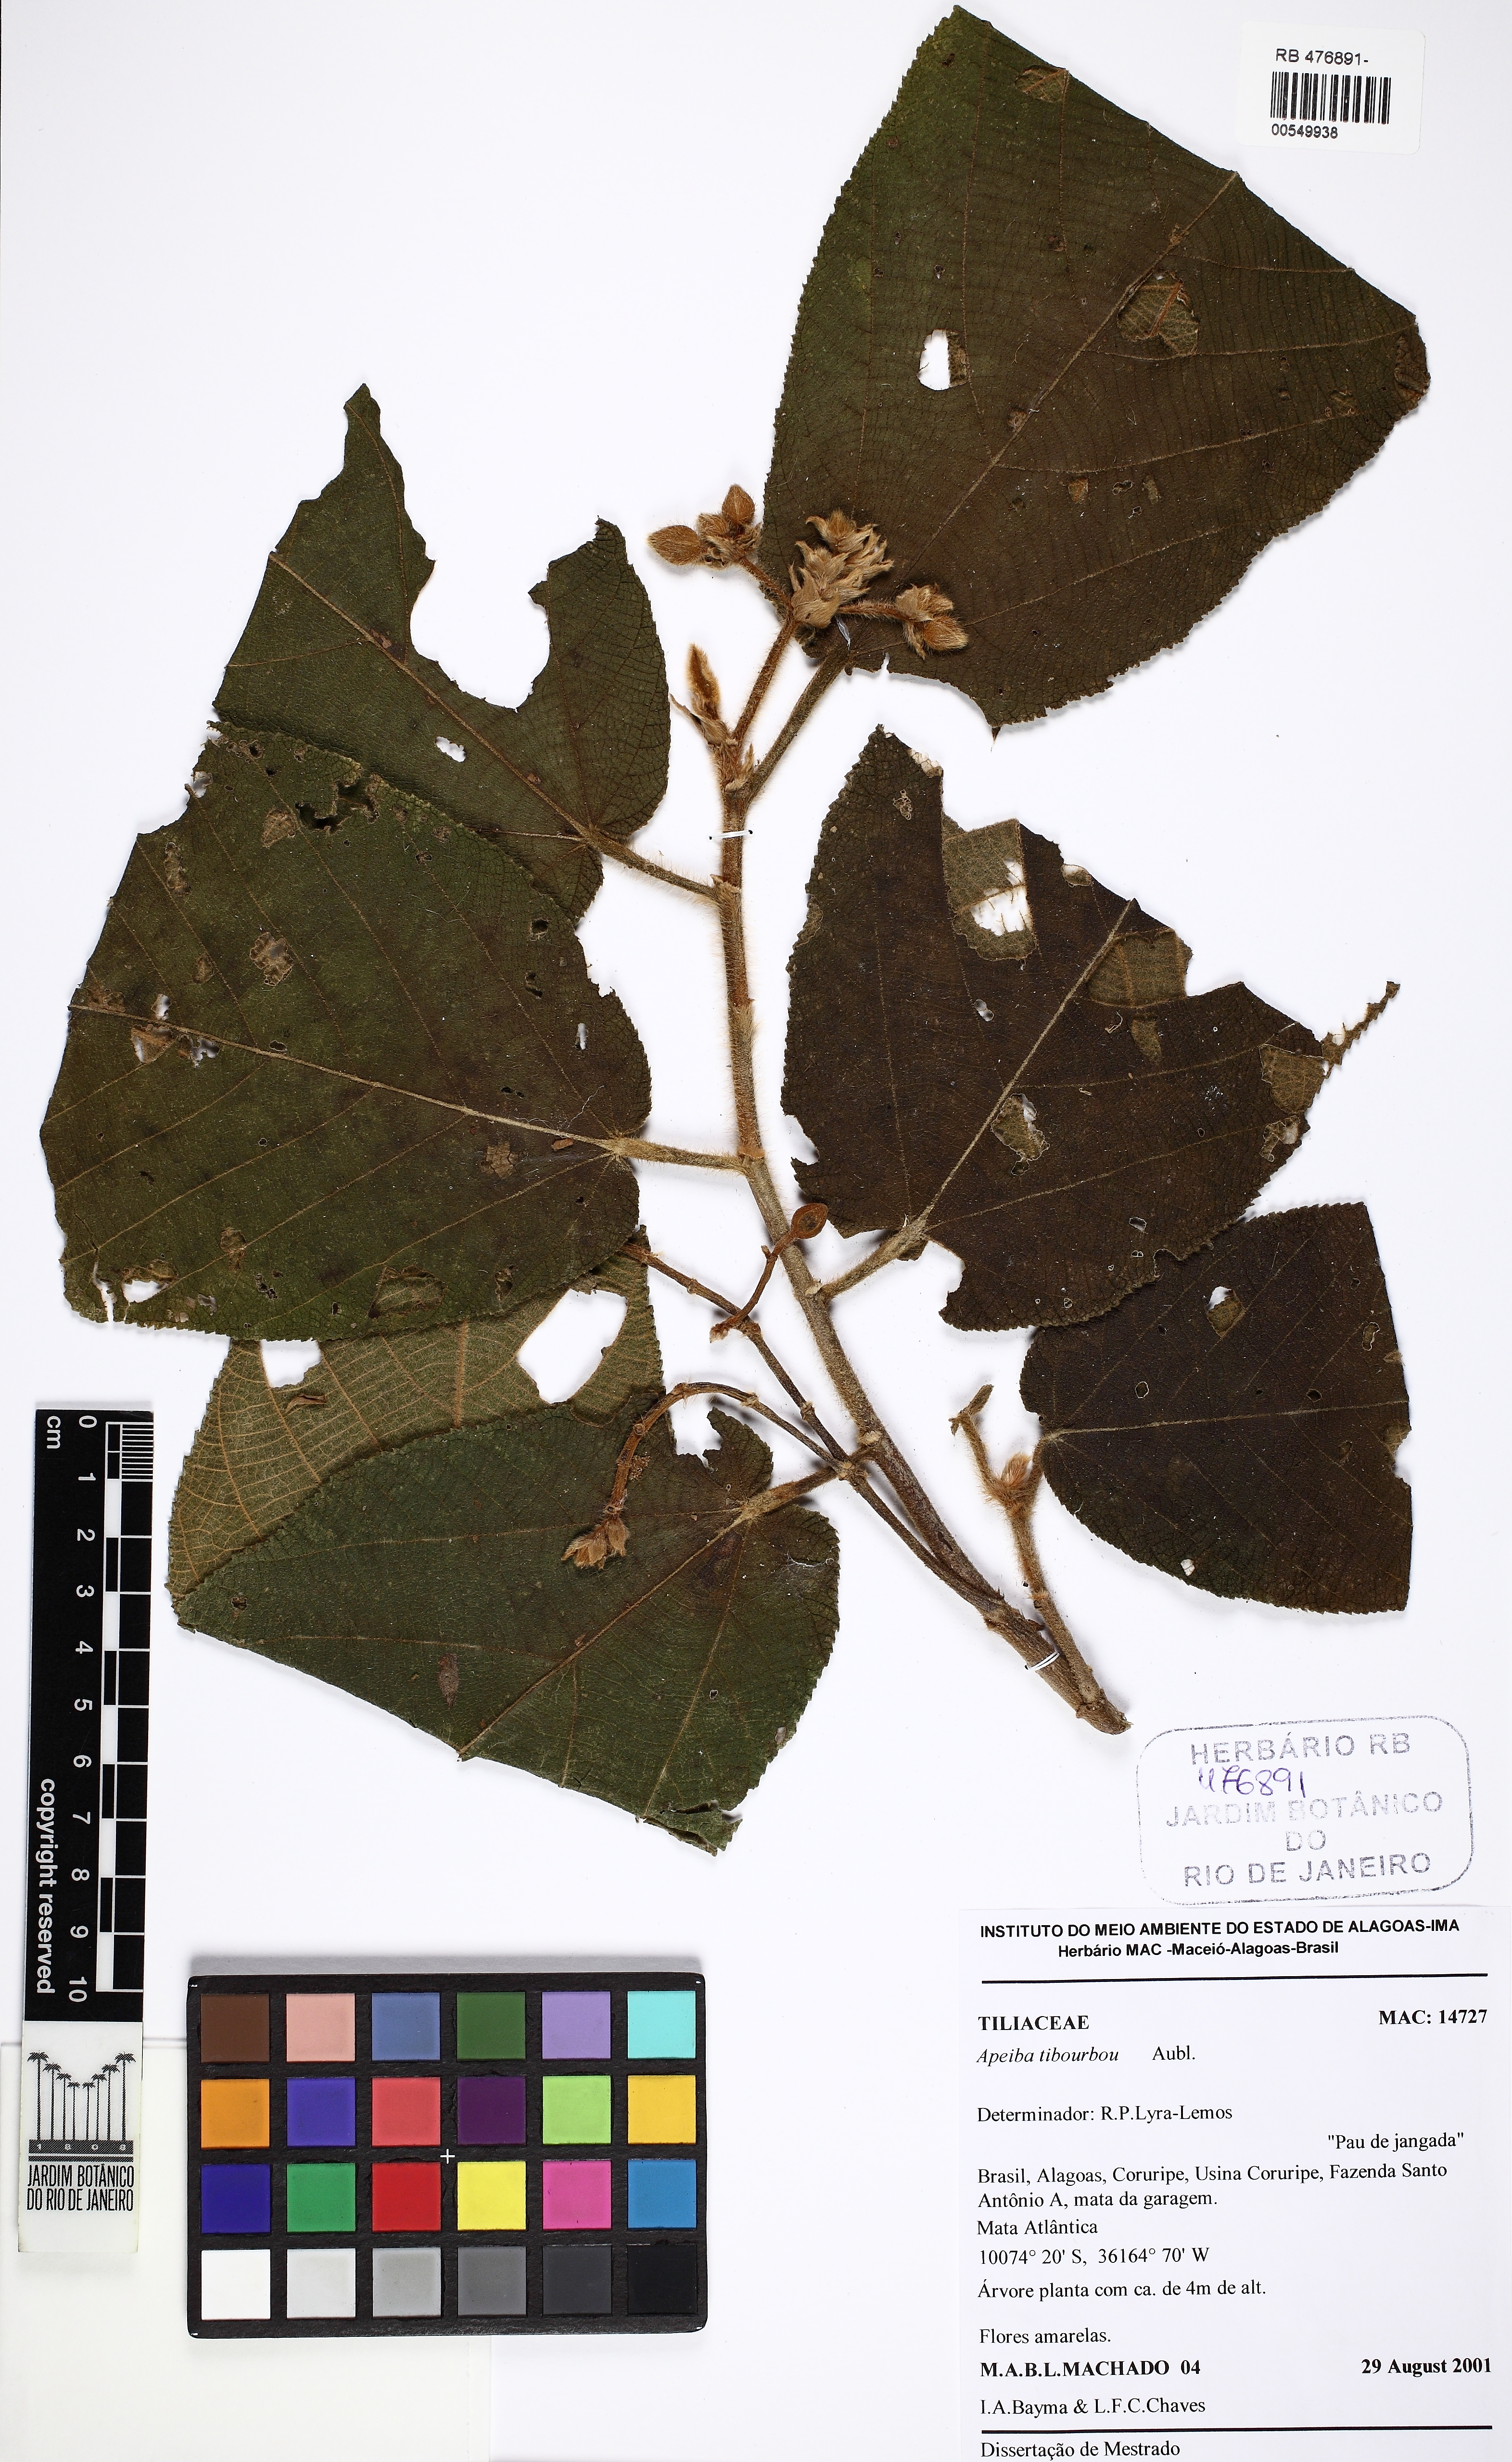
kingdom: Plantae
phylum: Tracheophyta
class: Magnoliopsida
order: Malvales
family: Malvaceae
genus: Apeiba
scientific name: Apeiba tibourbou
